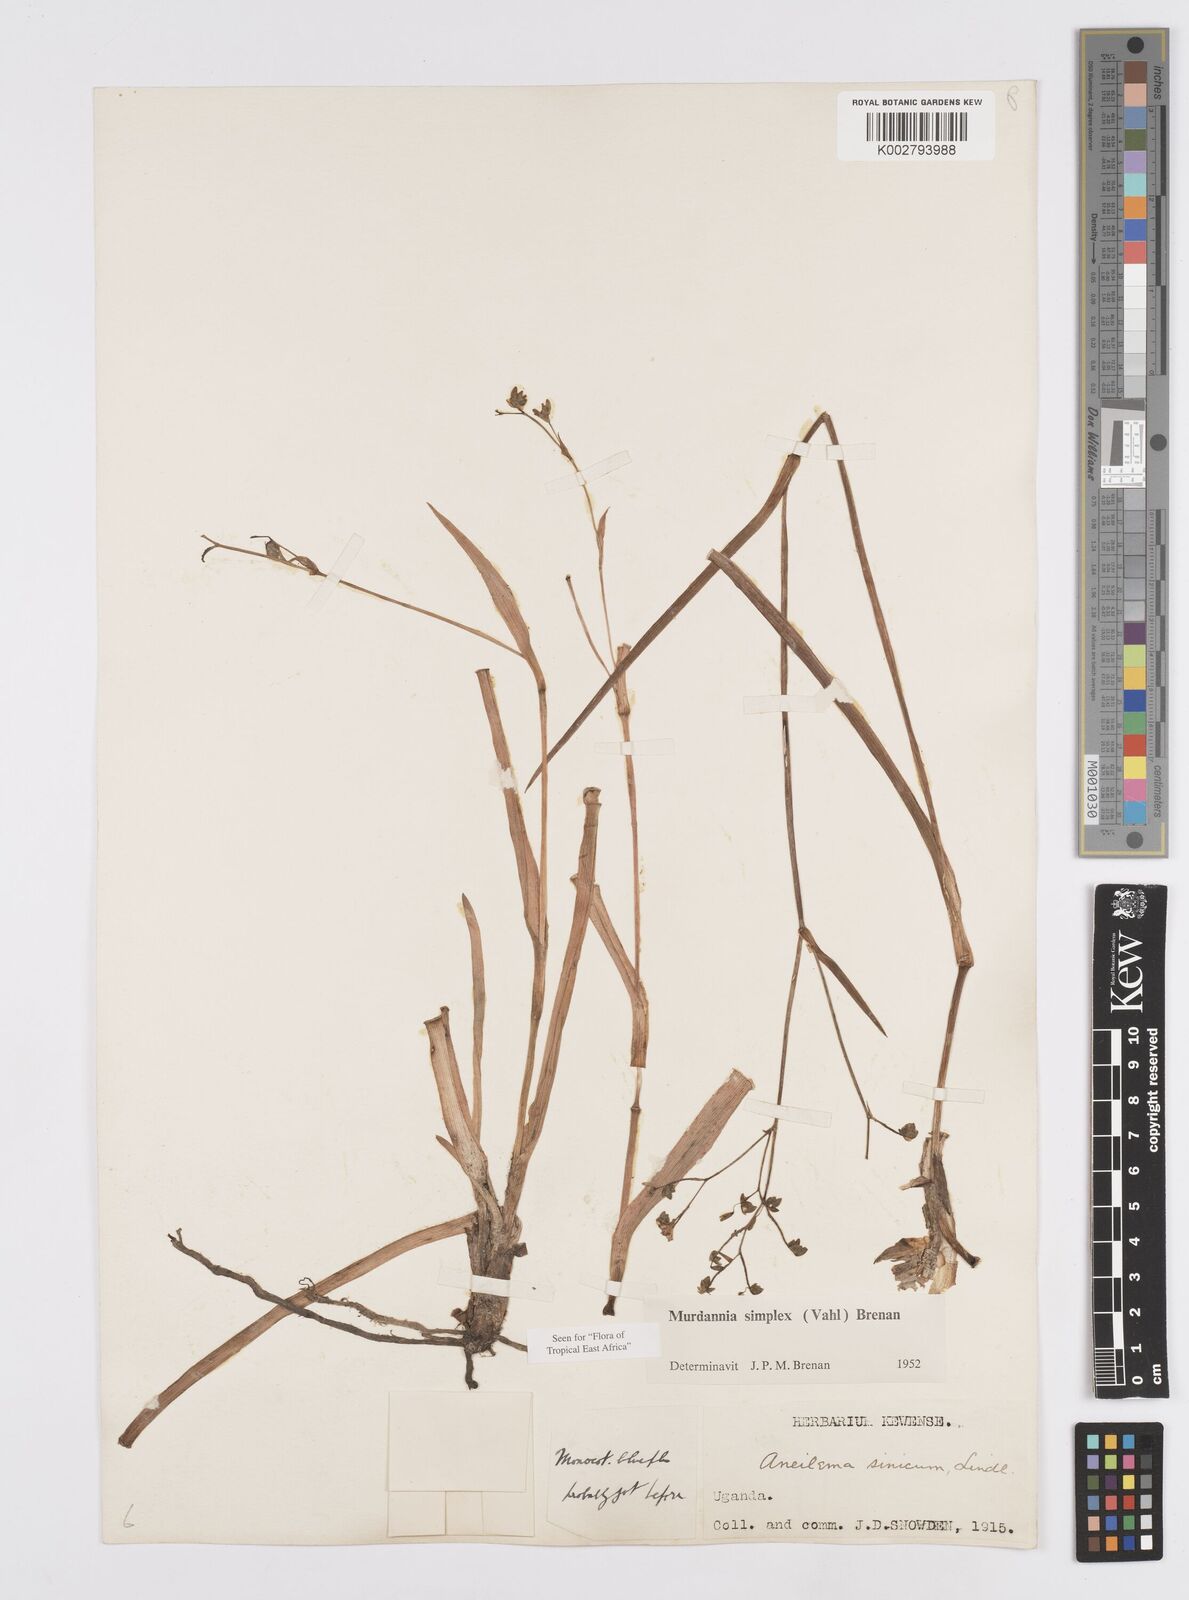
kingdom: Plantae
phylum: Tracheophyta
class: Liliopsida
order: Commelinales
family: Commelinaceae
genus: Murdannia
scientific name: Murdannia simplex
